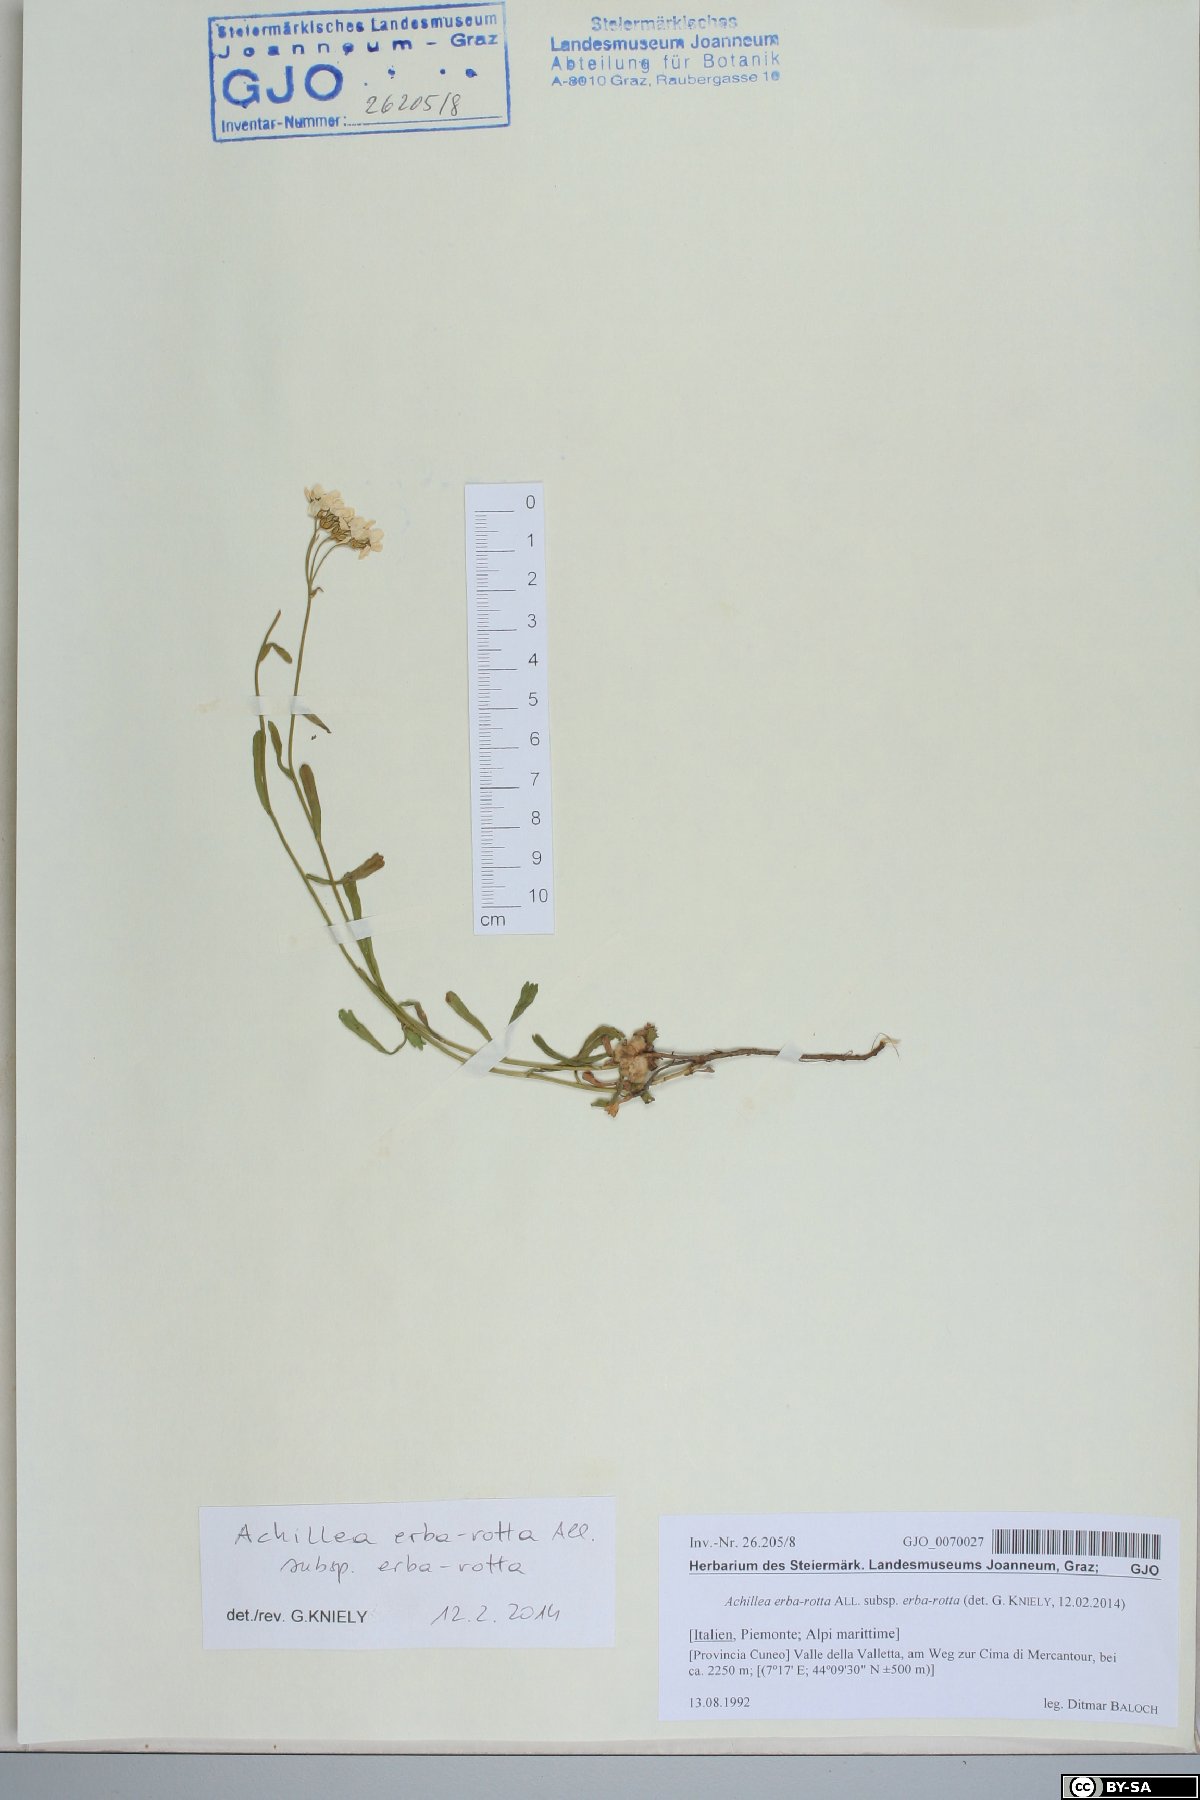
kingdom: Plantae
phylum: Tracheophyta
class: Magnoliopsida
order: Asterales
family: Asteraceae
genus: Achillea
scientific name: Achillea erba-rotta
